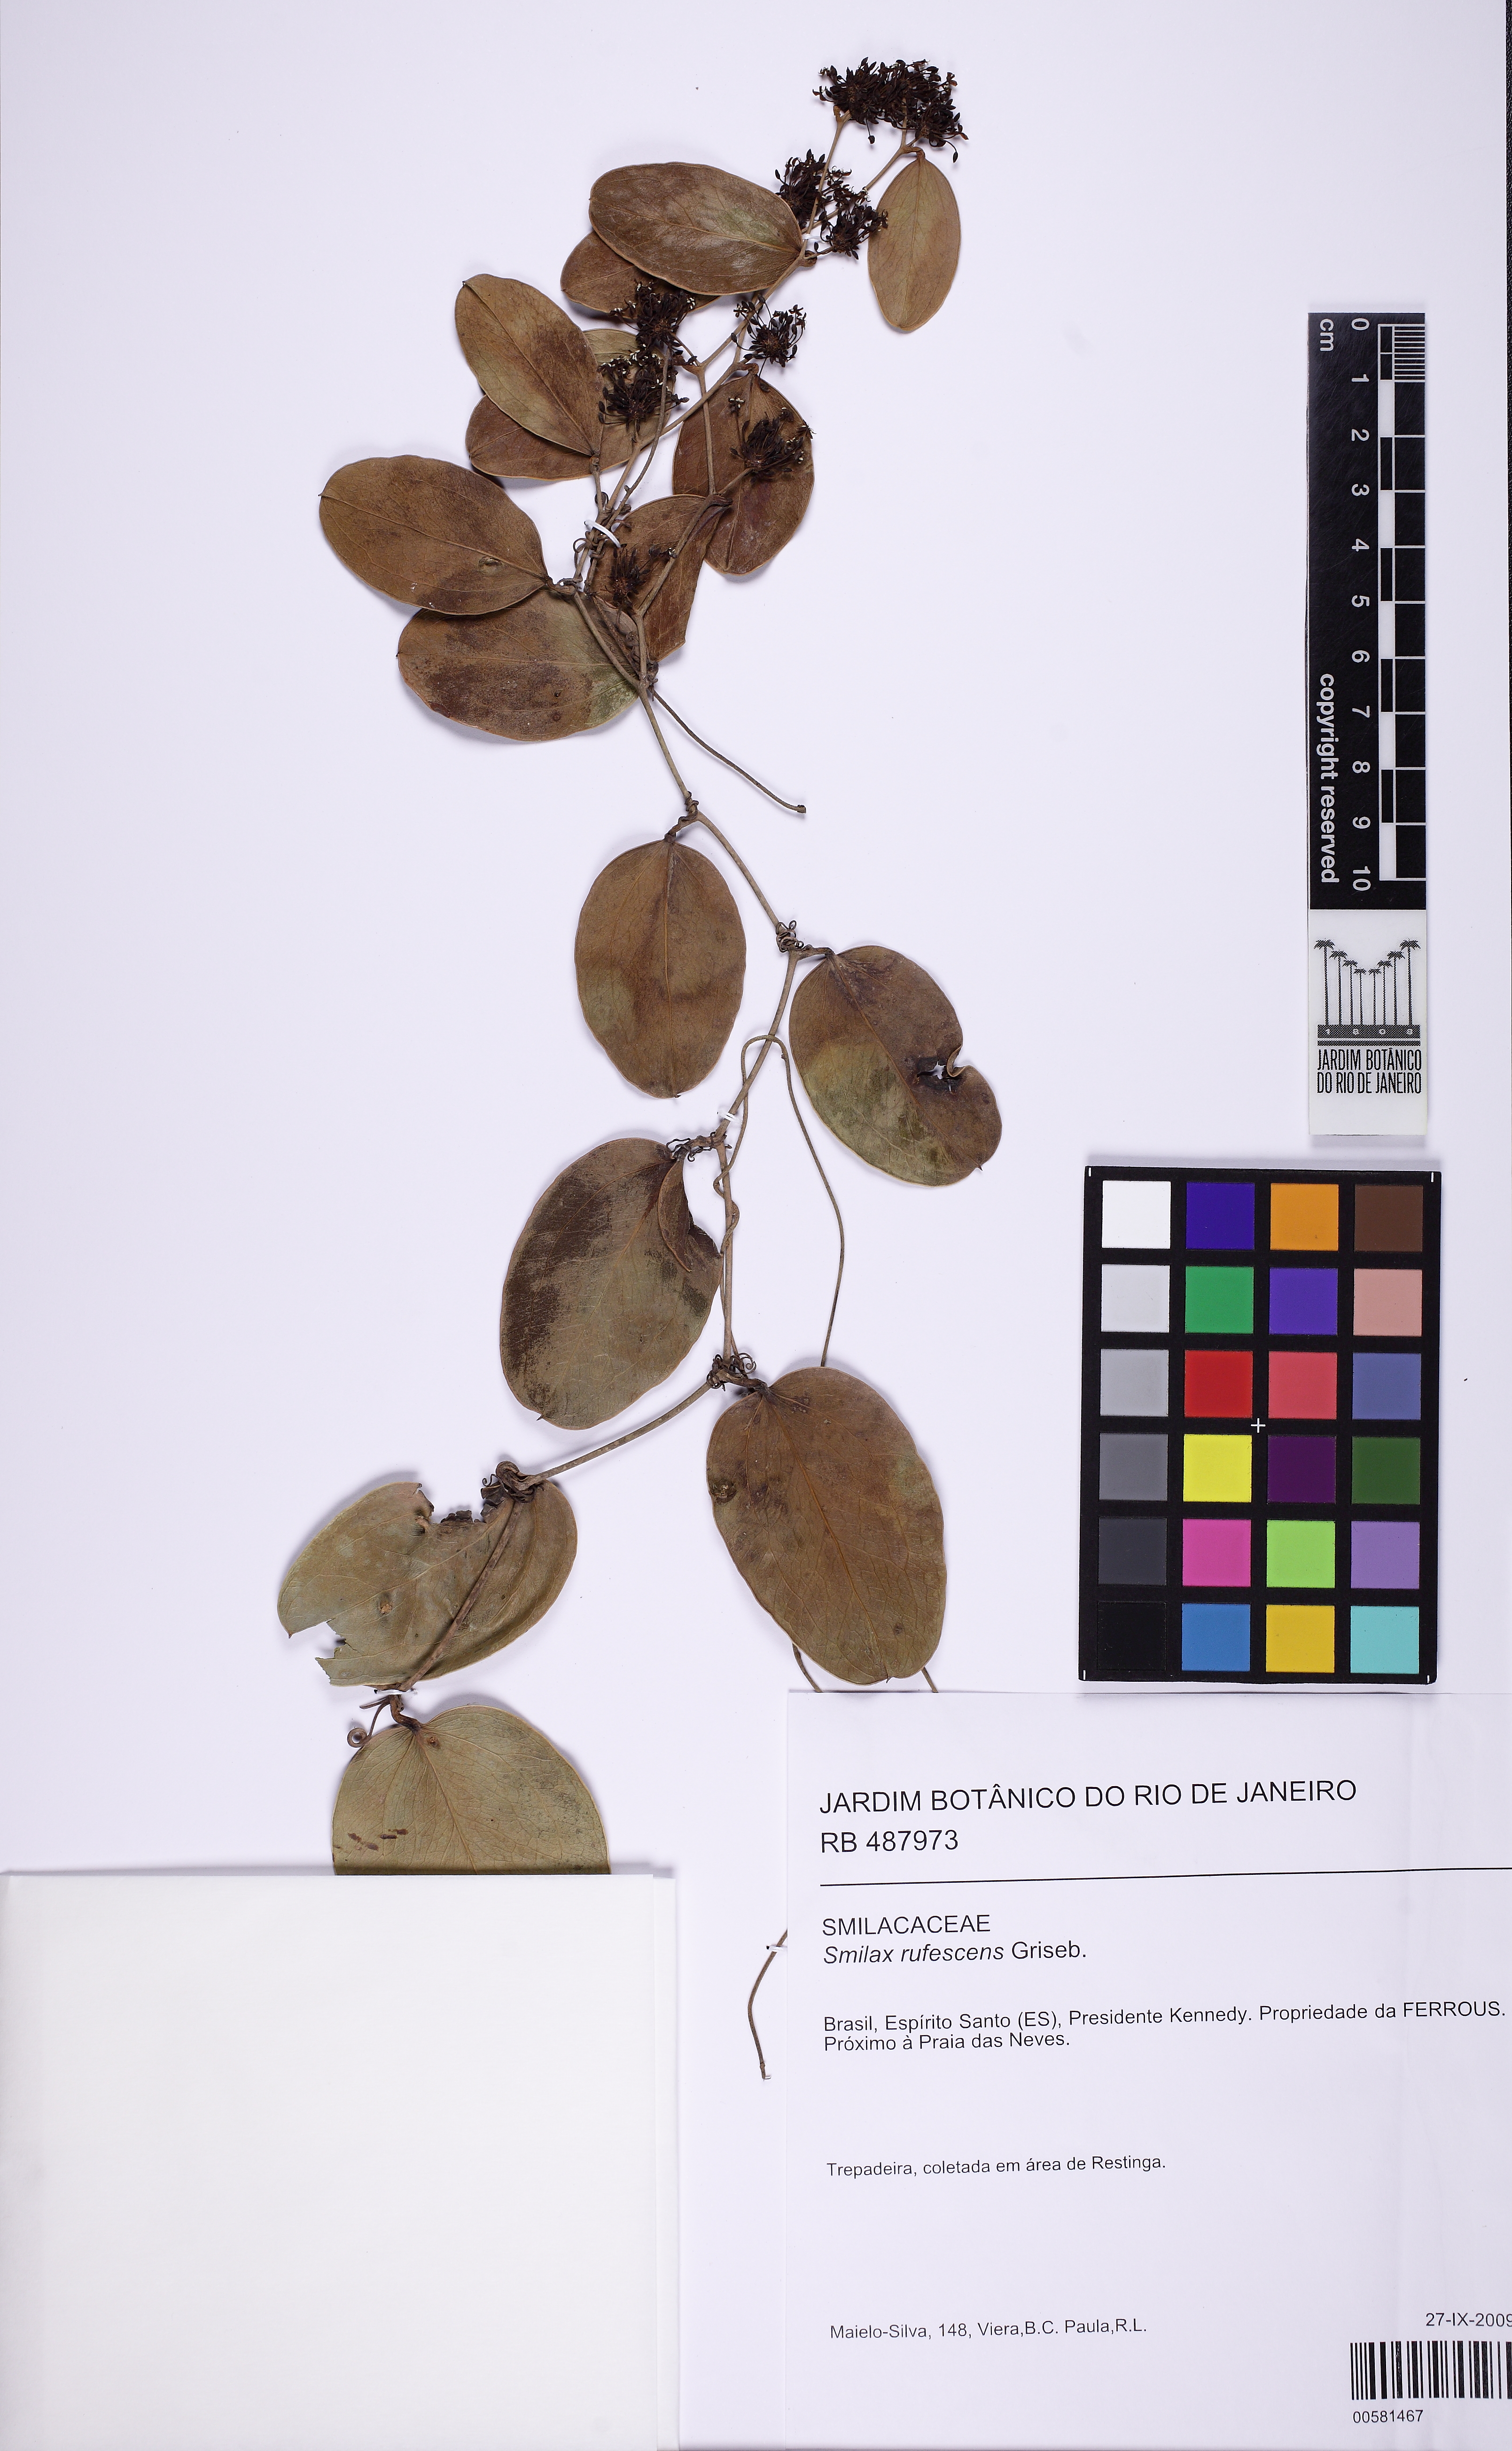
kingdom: Plantae
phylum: Tracheophyta
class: Liliopsida
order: Liliales
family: Smilacaceae
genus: Smilax
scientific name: Smilax rufescens
